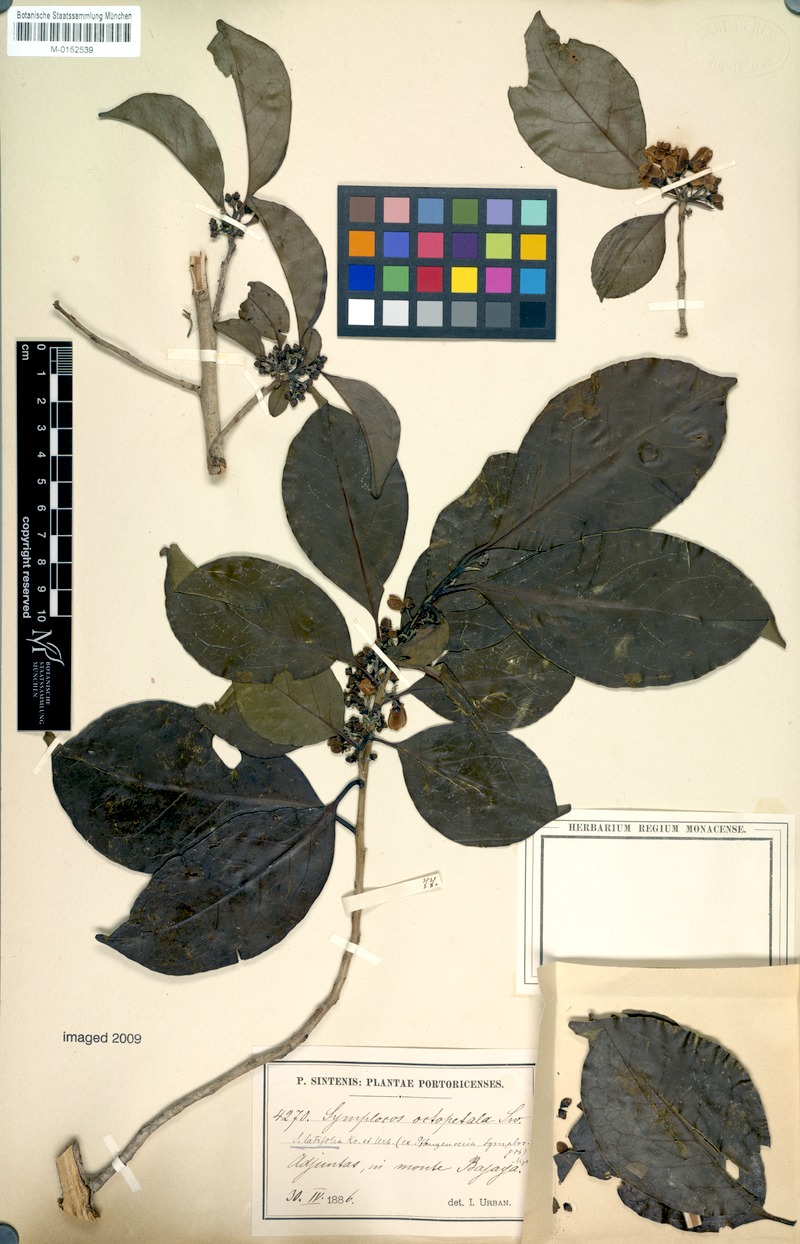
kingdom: Plantae
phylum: Tracheophyta
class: Magnoliopsida
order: Ericales
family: Symplocaceae
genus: Symplocos
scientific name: Symplocos latifolia
